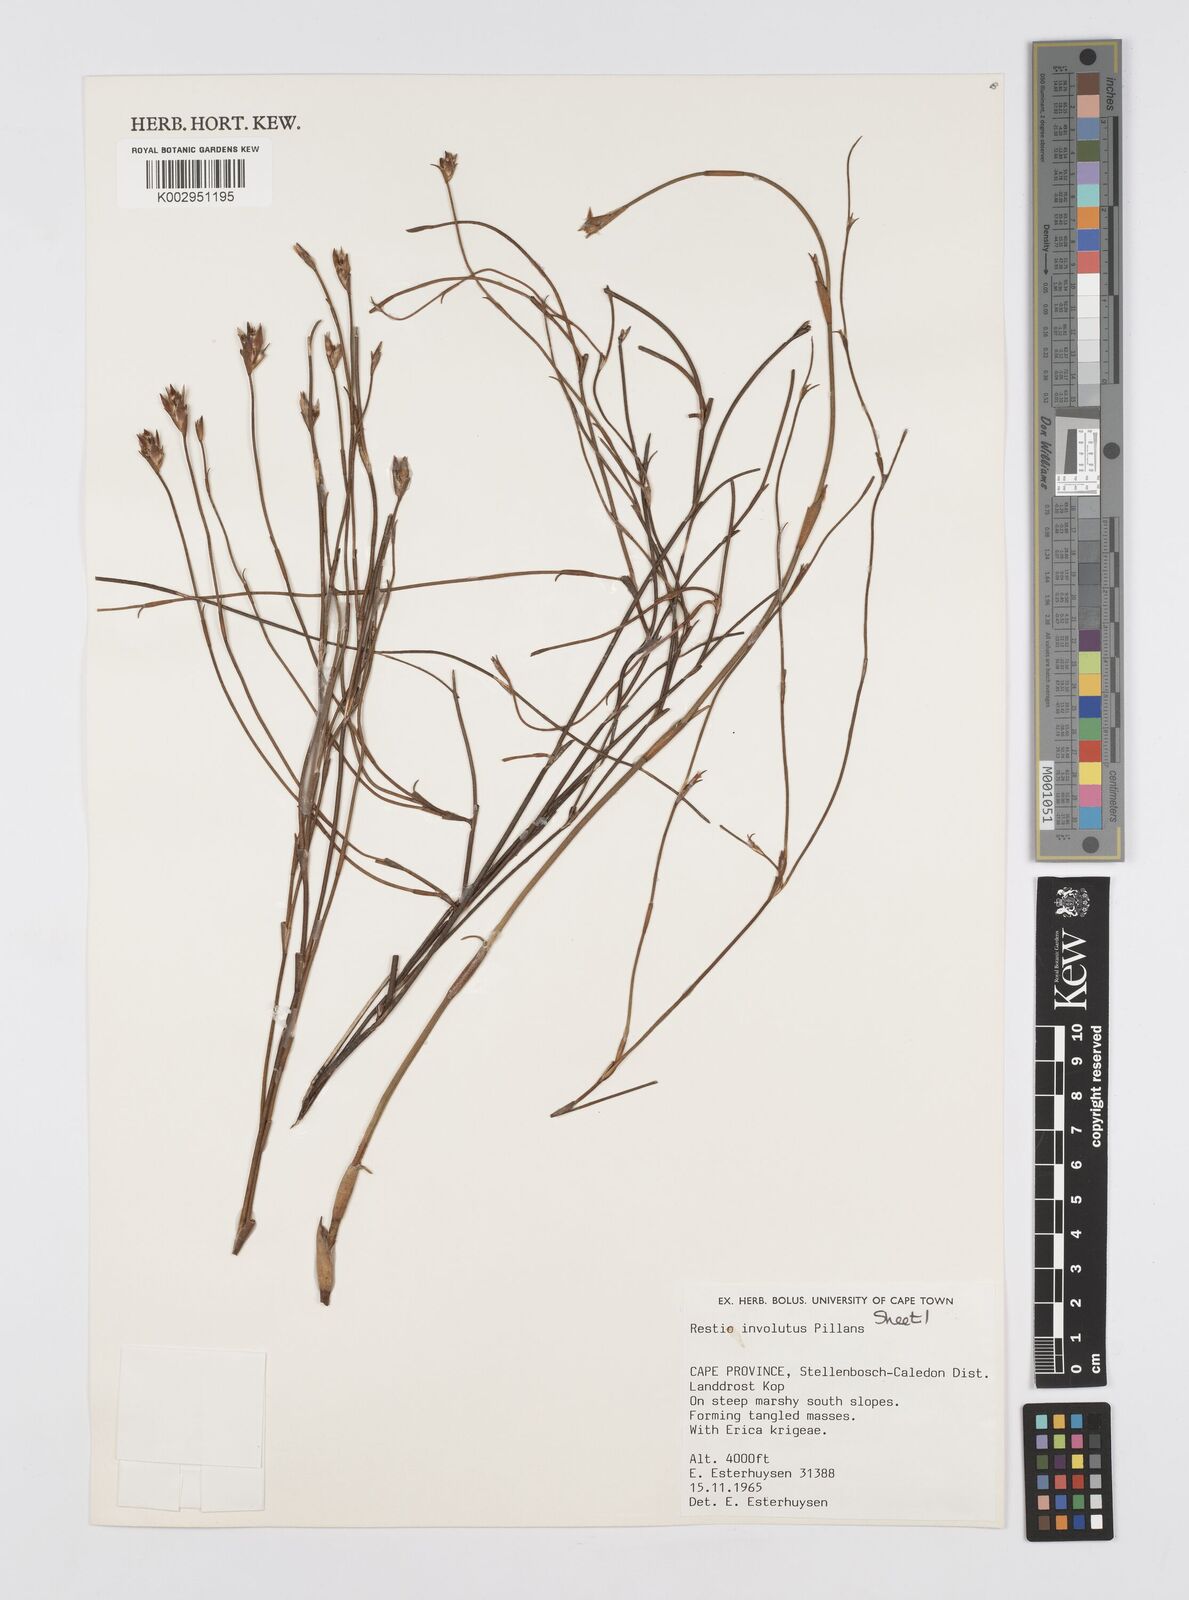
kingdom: Plantae
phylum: Tracheophyta
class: Liliopsida
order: Poales
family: Restionaceae
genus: Restio
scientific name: Restio involutus
